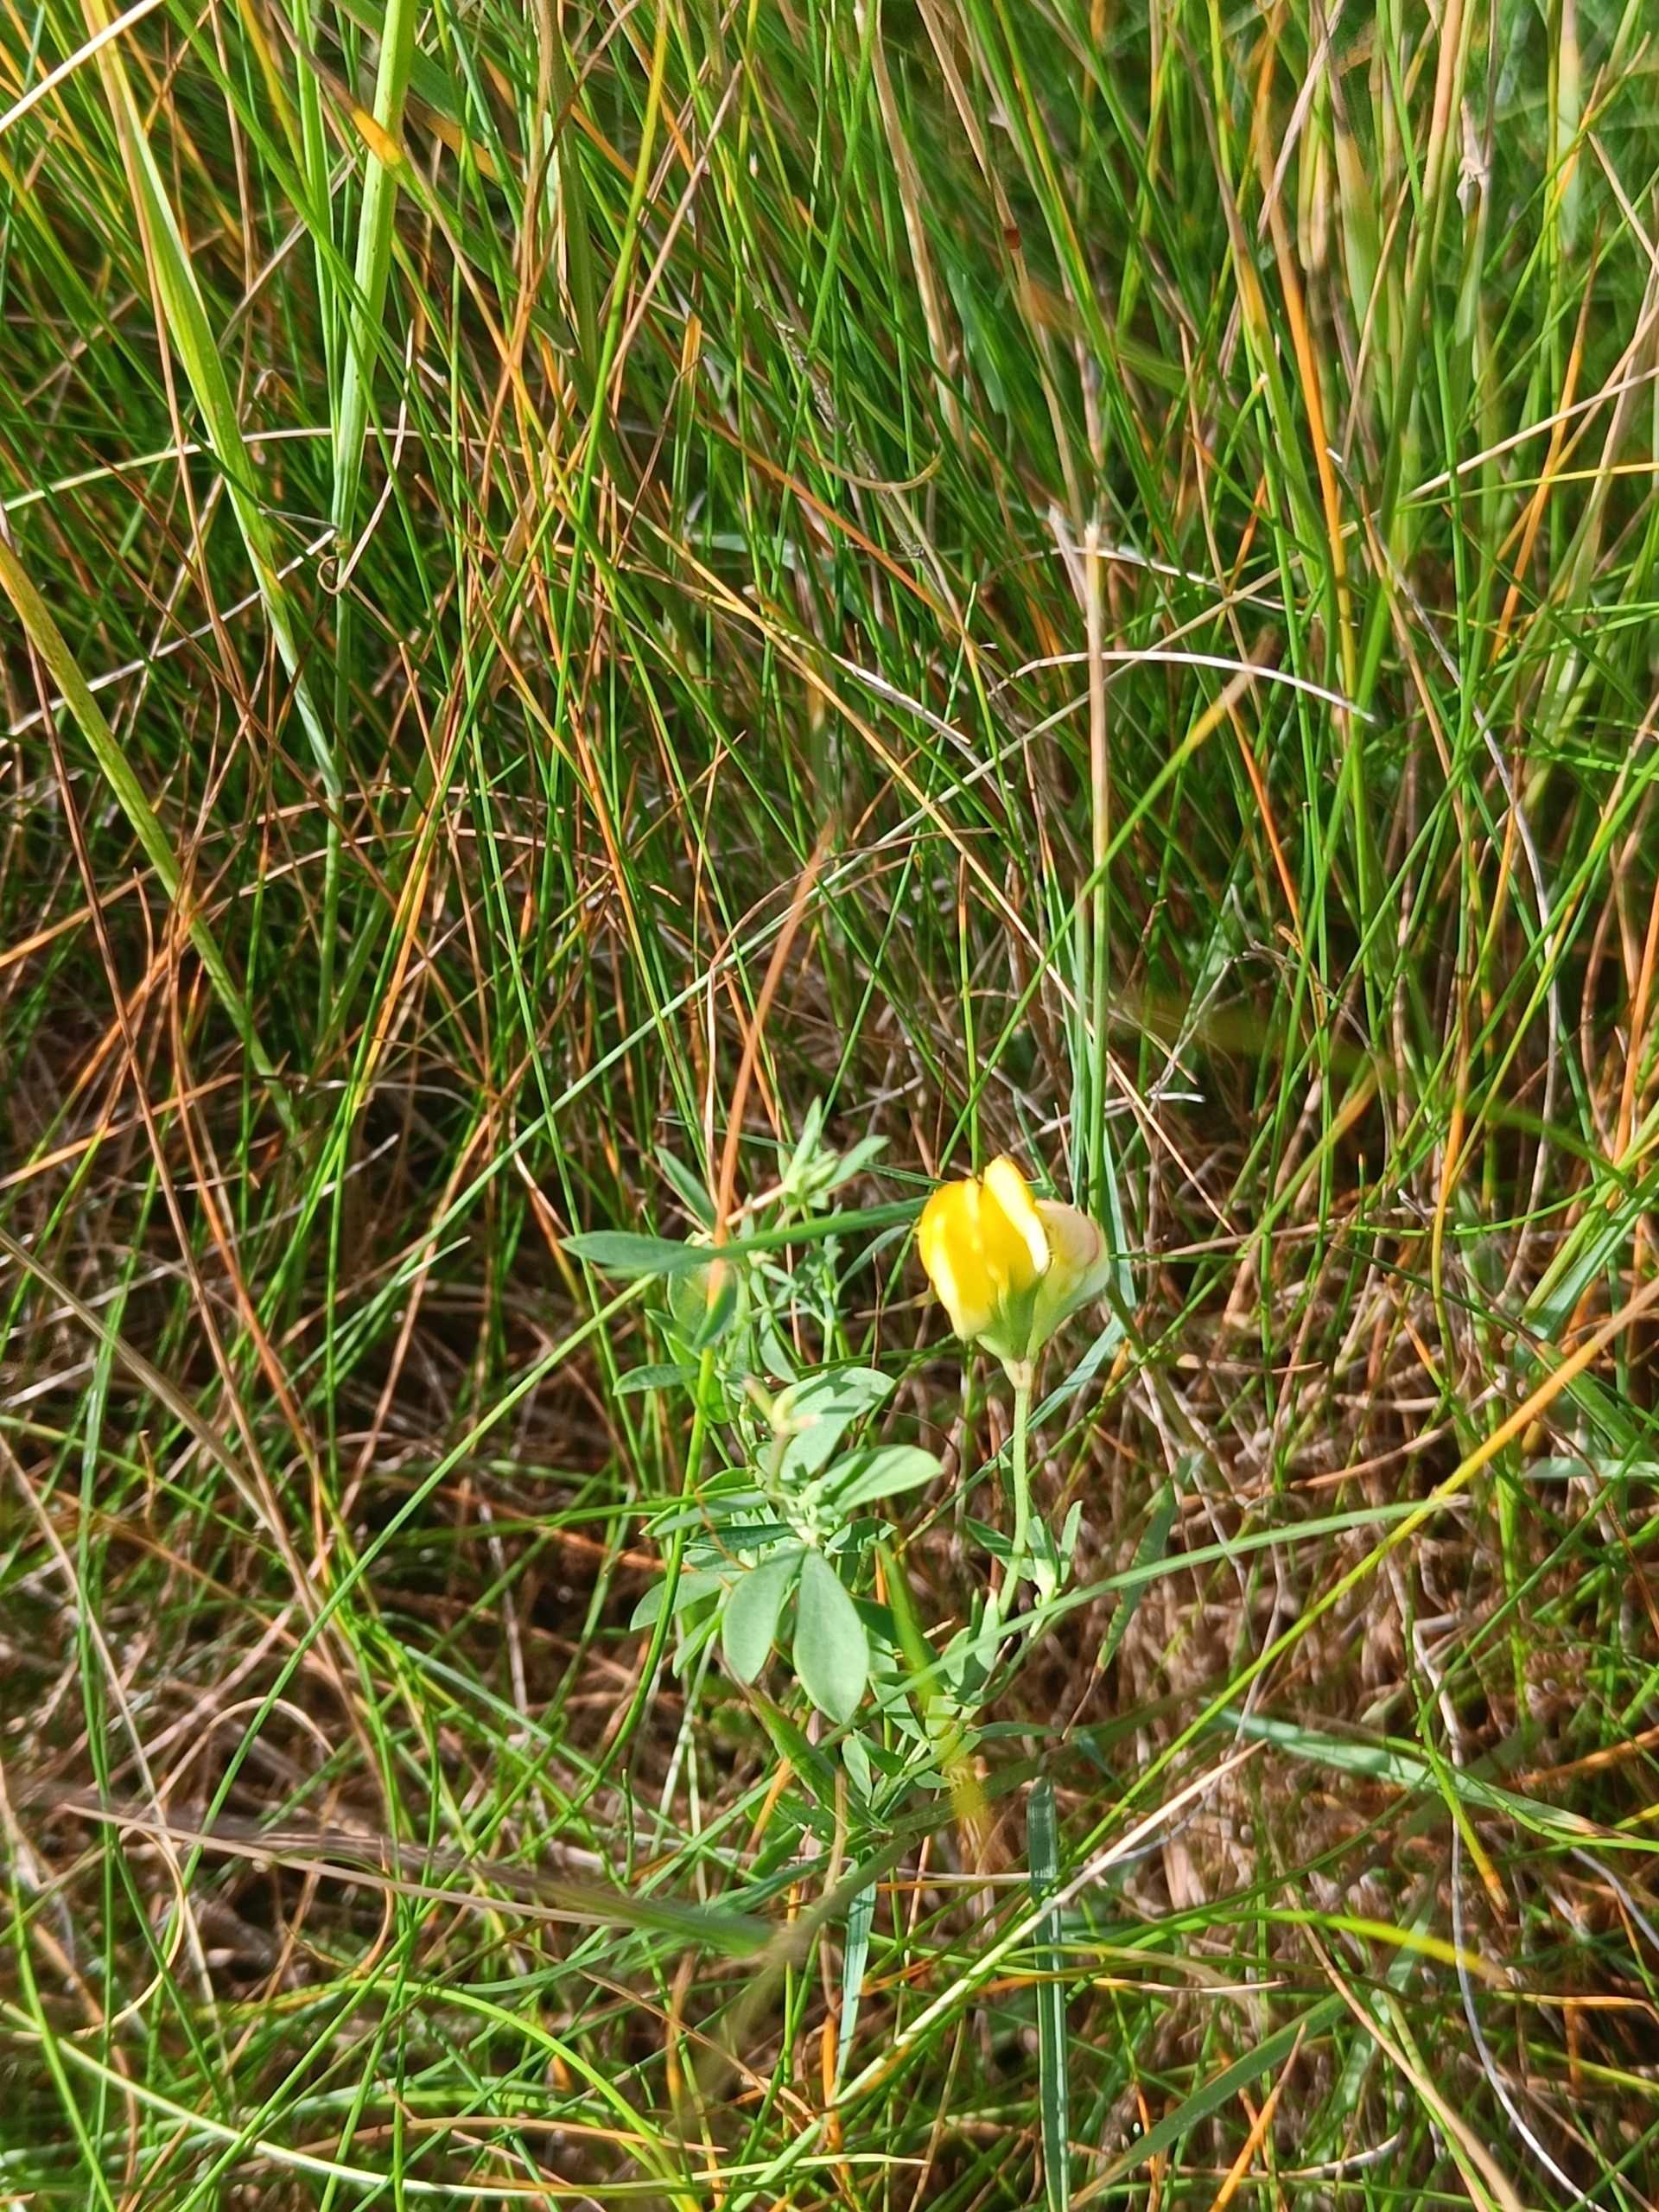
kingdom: Plantae
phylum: Tracheophyta
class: Magnoliopsida
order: Fabales
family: Fabaceae
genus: Lotus
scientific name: Lotus tenuis
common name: Smalbladet kællingetand
